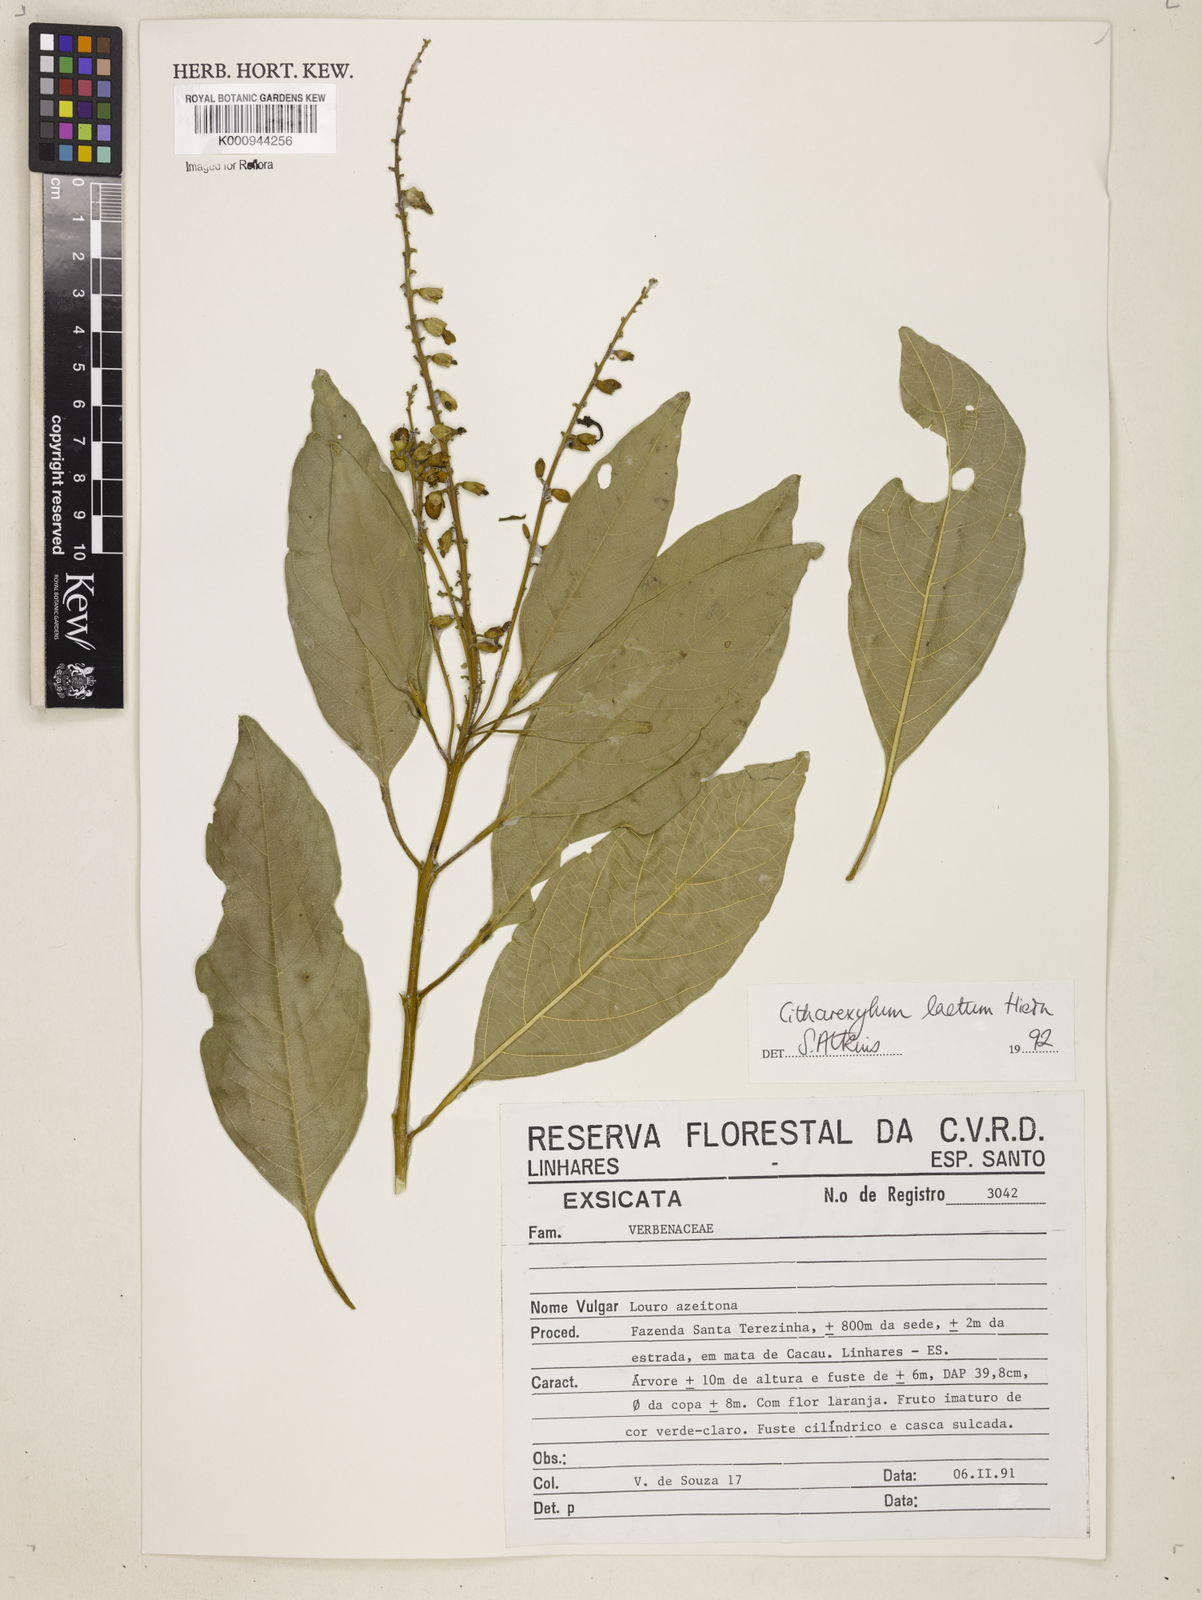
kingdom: Plantae
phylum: Tracheophyta
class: Magnoliopsida
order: Lamiales
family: Verbenaceae
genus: Citharexylum
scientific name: Citharexylum myrianthum
